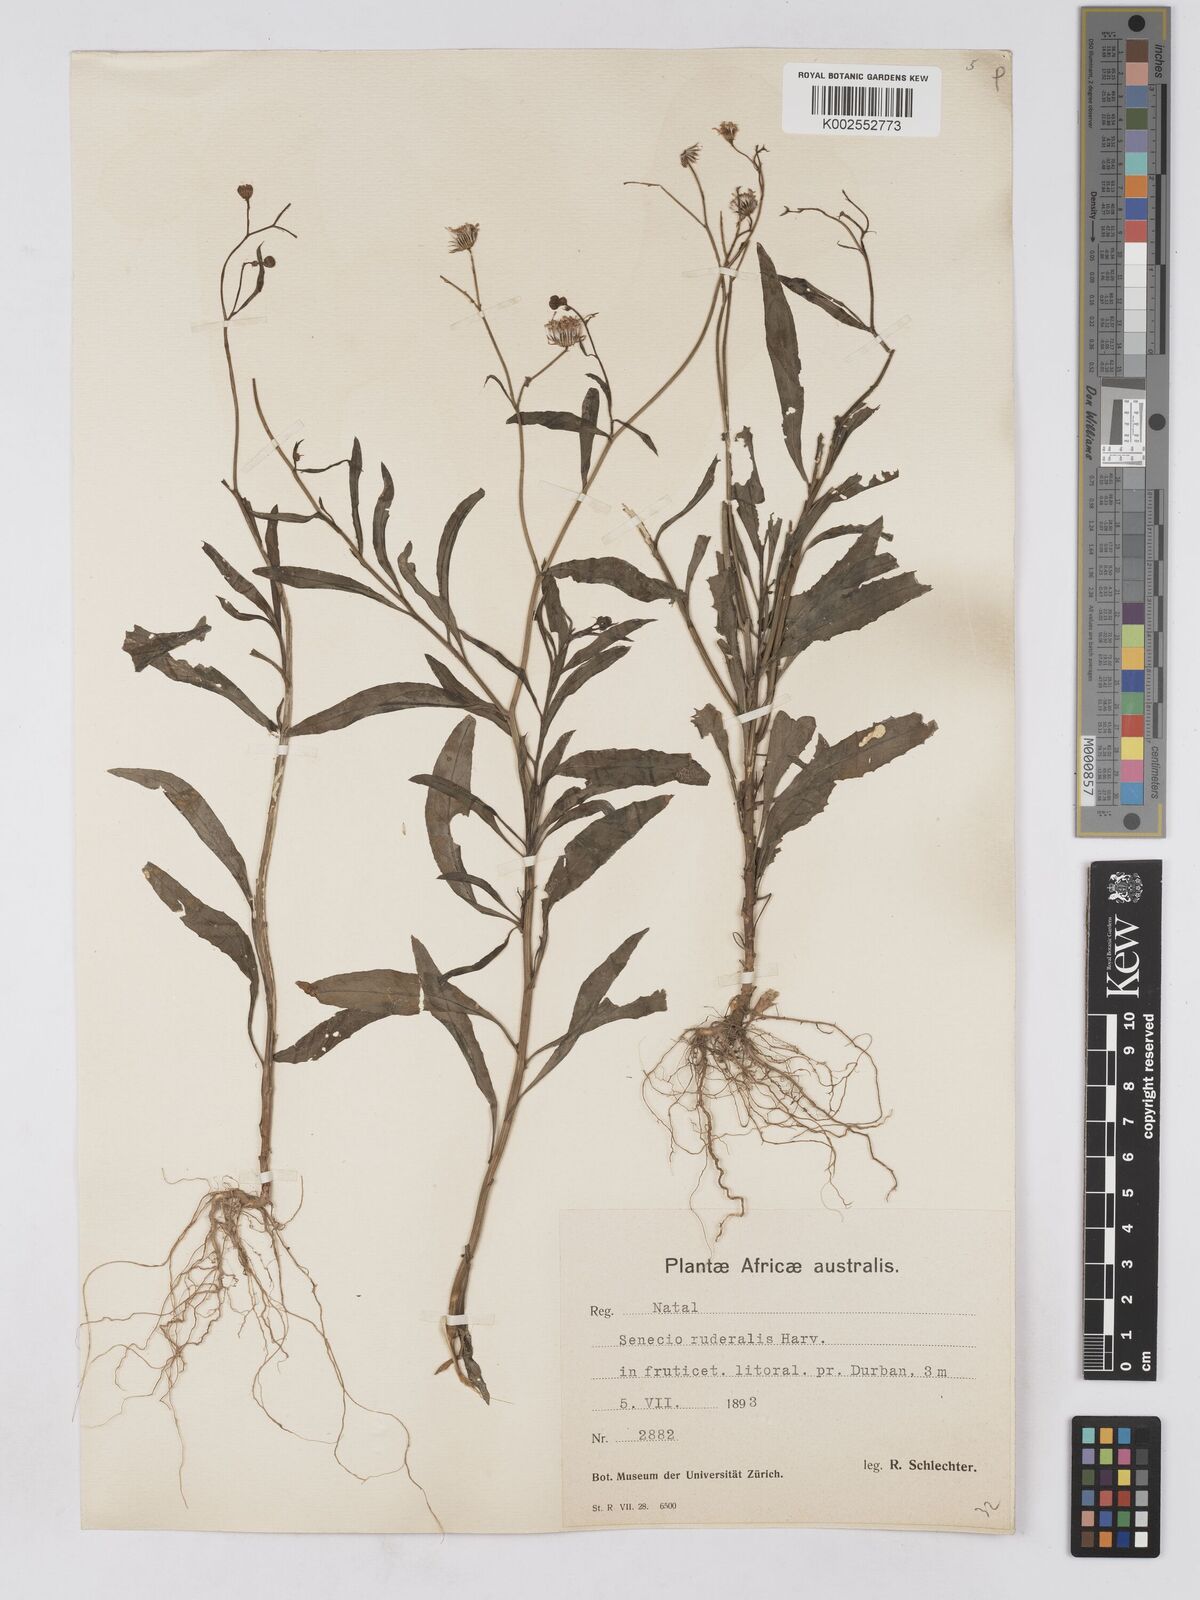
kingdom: Plantae
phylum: Tracheophyta
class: Magnoliopsida
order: Asterales
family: Asteraceae
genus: Senecio
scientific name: Senecio madagascariensis
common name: Madagascar ragwort
